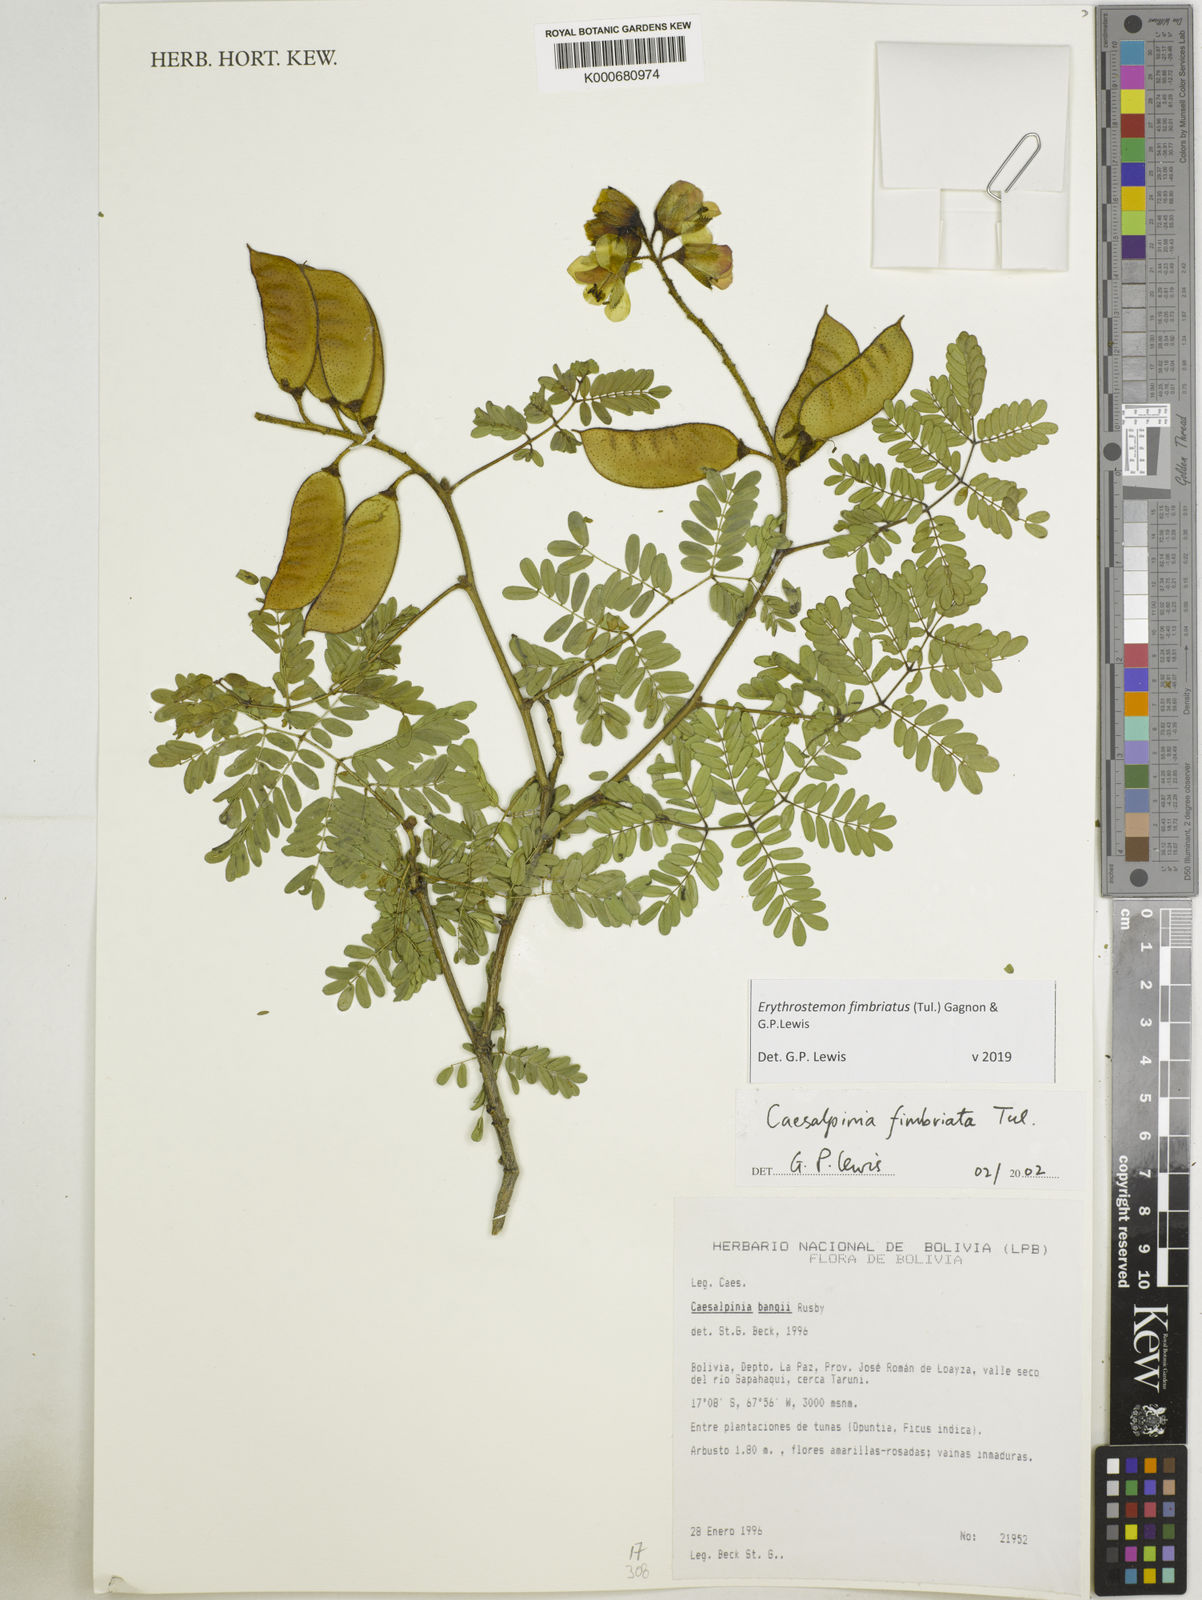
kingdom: Plantae
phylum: Tracheophyta
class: Magnoliopsida
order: Fabales
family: Fabaceae
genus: Erythrostemon
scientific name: Erythrostemon fimbriatus
